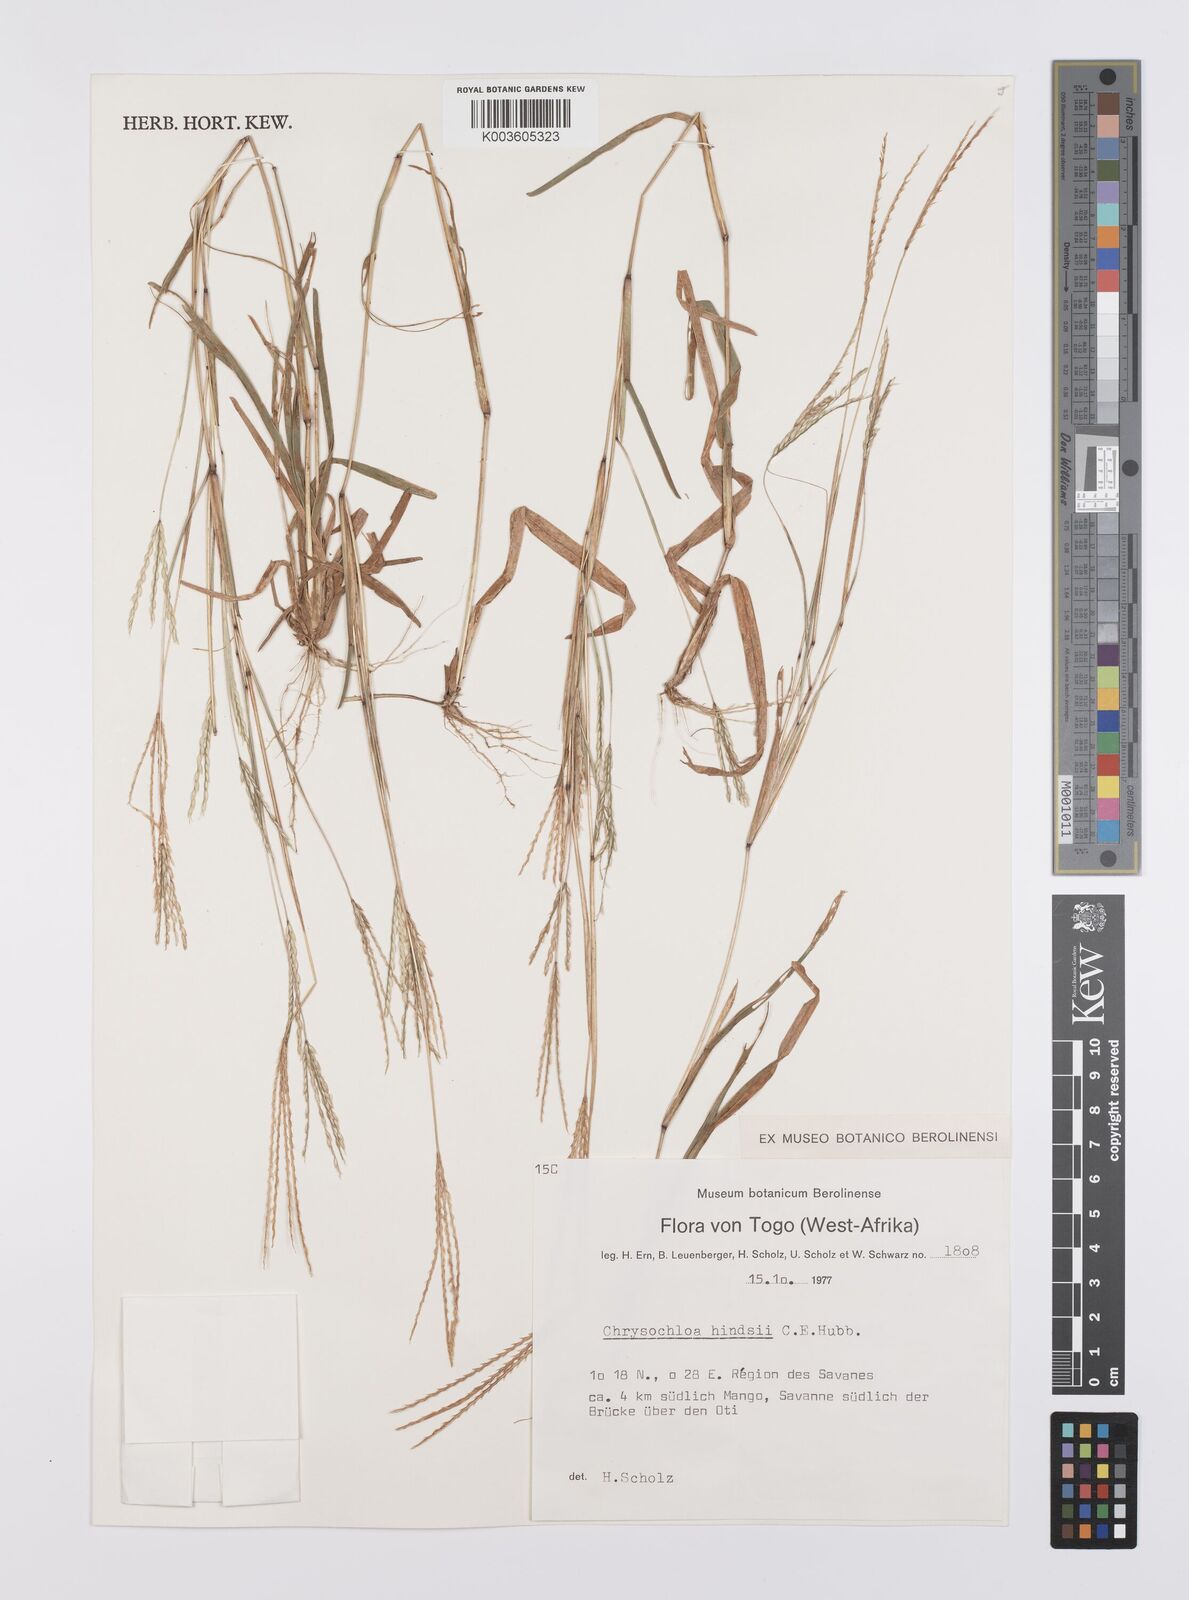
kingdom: Plantae
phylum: Tracheophyta
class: Liliopsida
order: Poales
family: Poaceae
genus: Chrysochloa
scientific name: Chrysochloa hindsii
